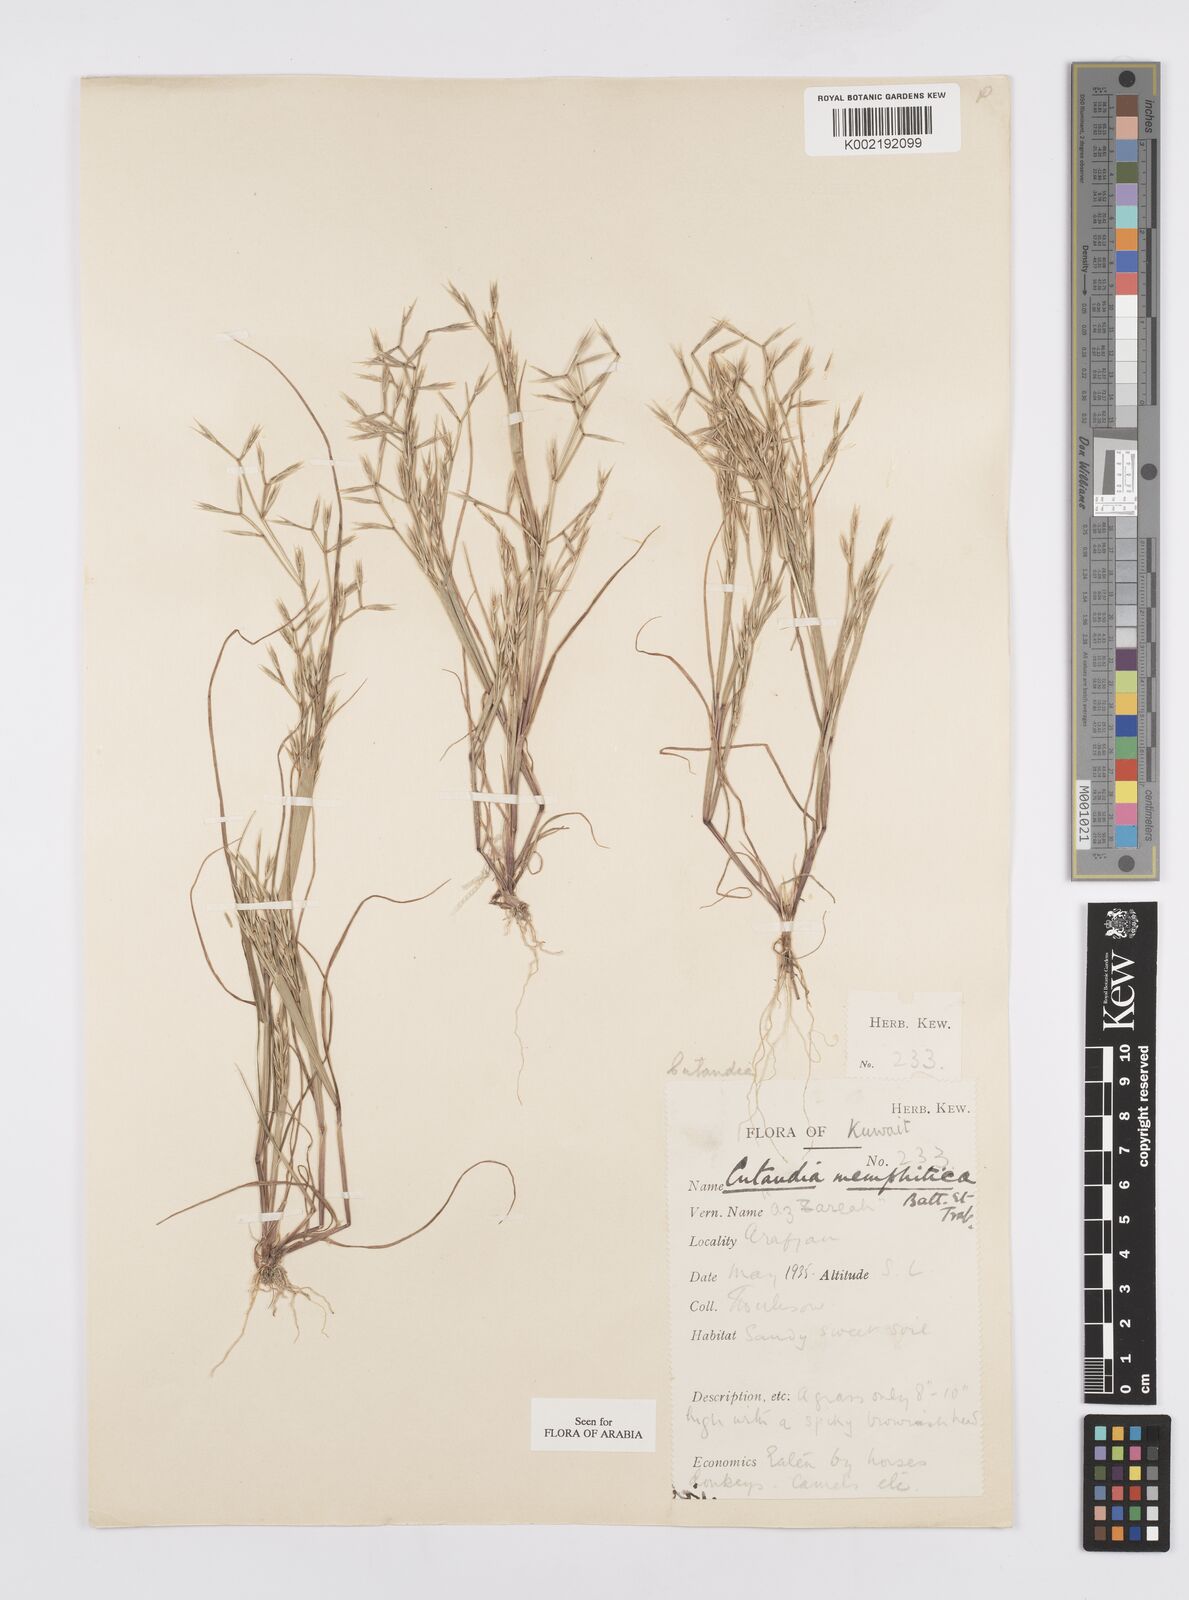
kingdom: Plantae
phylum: Tracheophyta
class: Liliopsida
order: Poales
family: Poaceae
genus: Cutandia
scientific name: Cutandia memphitica
